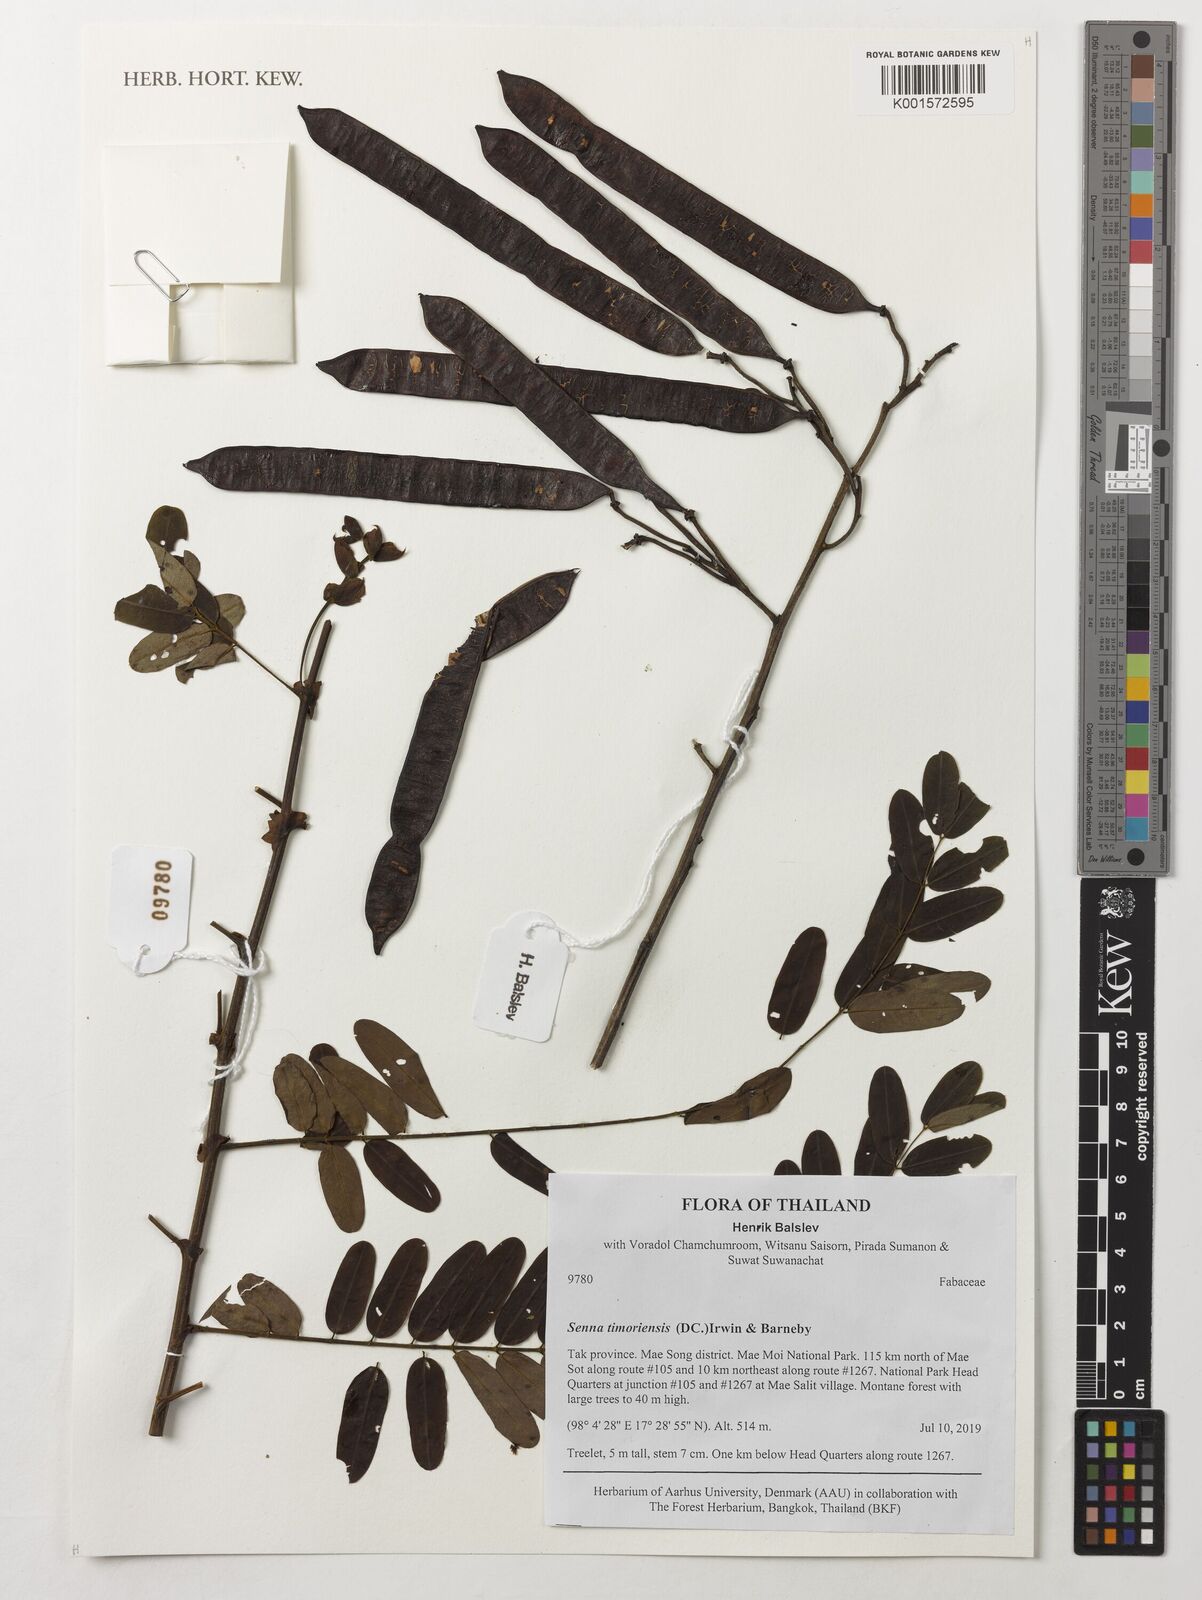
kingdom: Plantae
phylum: Tracheophyta
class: Magnoliopsida
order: Fabales
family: Fabaceae
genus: Senna
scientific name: Senna timoriensis
